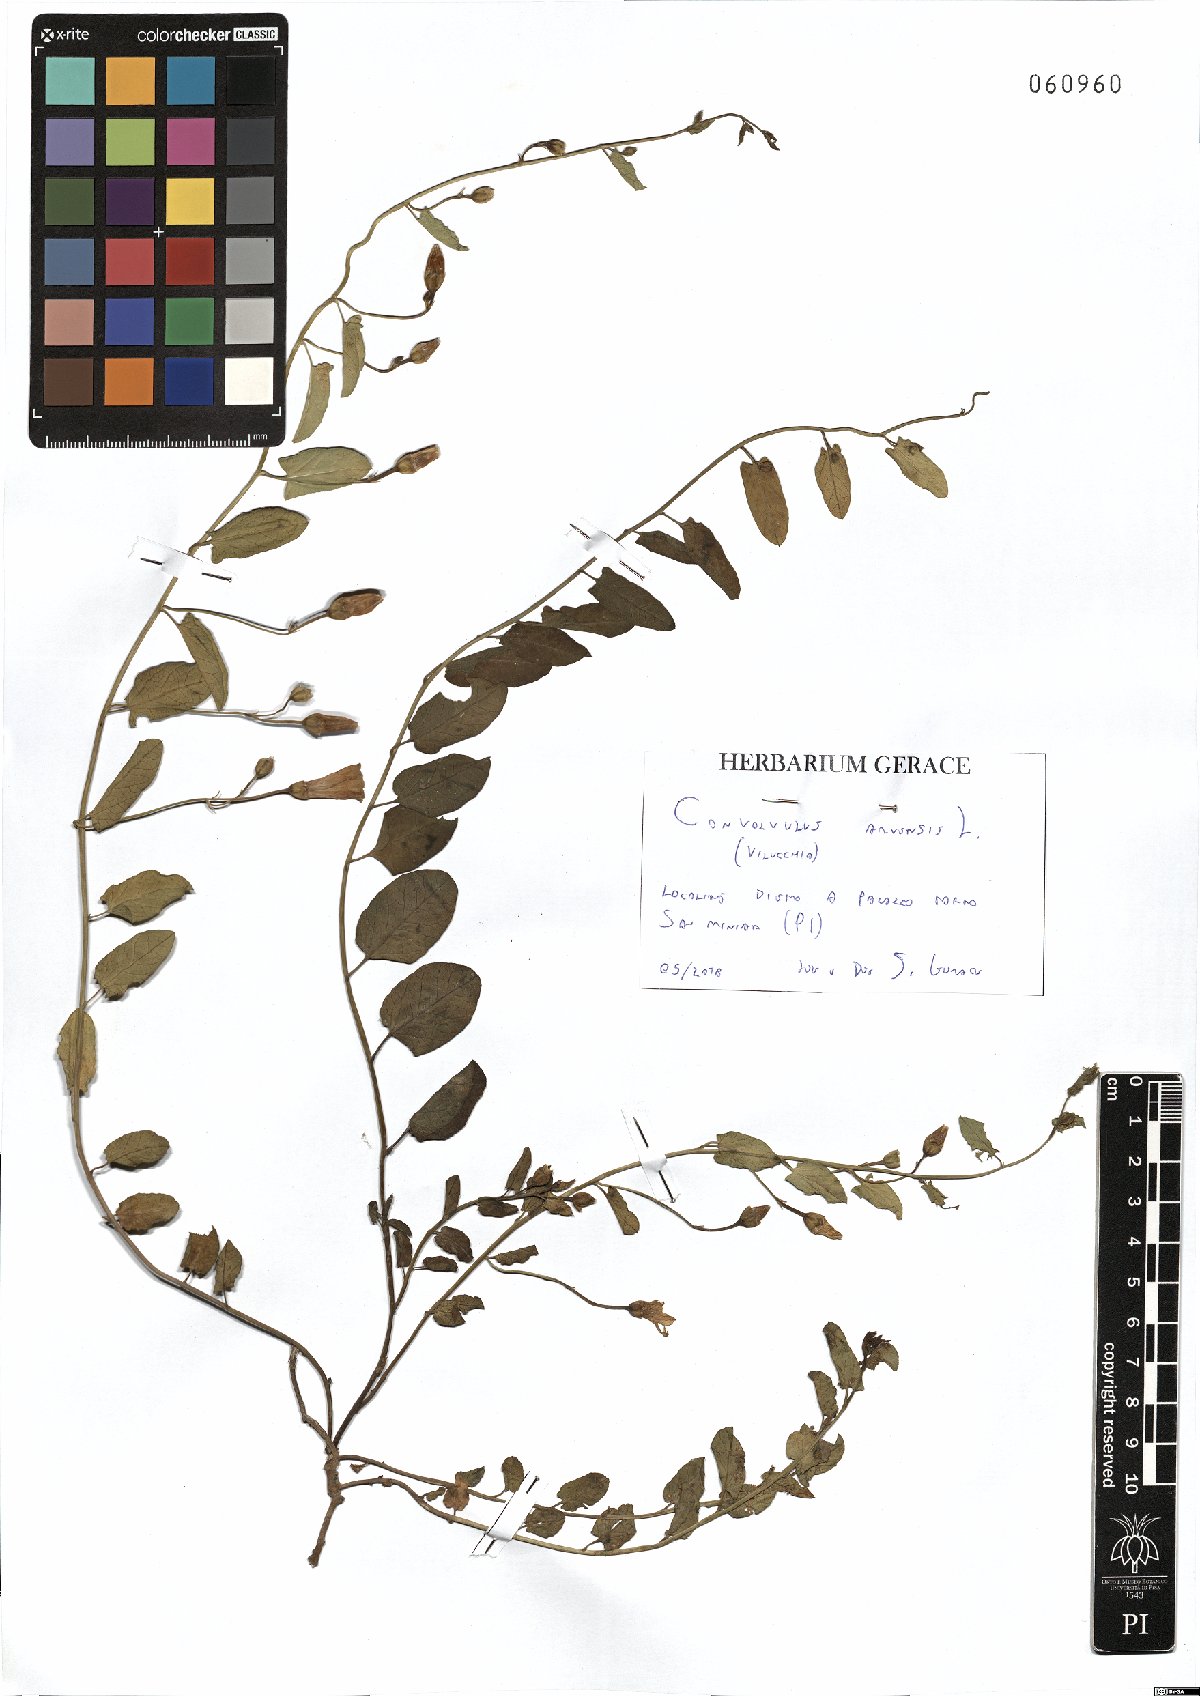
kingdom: Plantae
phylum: Tracheophyta
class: Magnoliopsida
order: Solanales
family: Convolvulaceae
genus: Convolvulus
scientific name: Convolvulus arvensis
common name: Field bindweed
